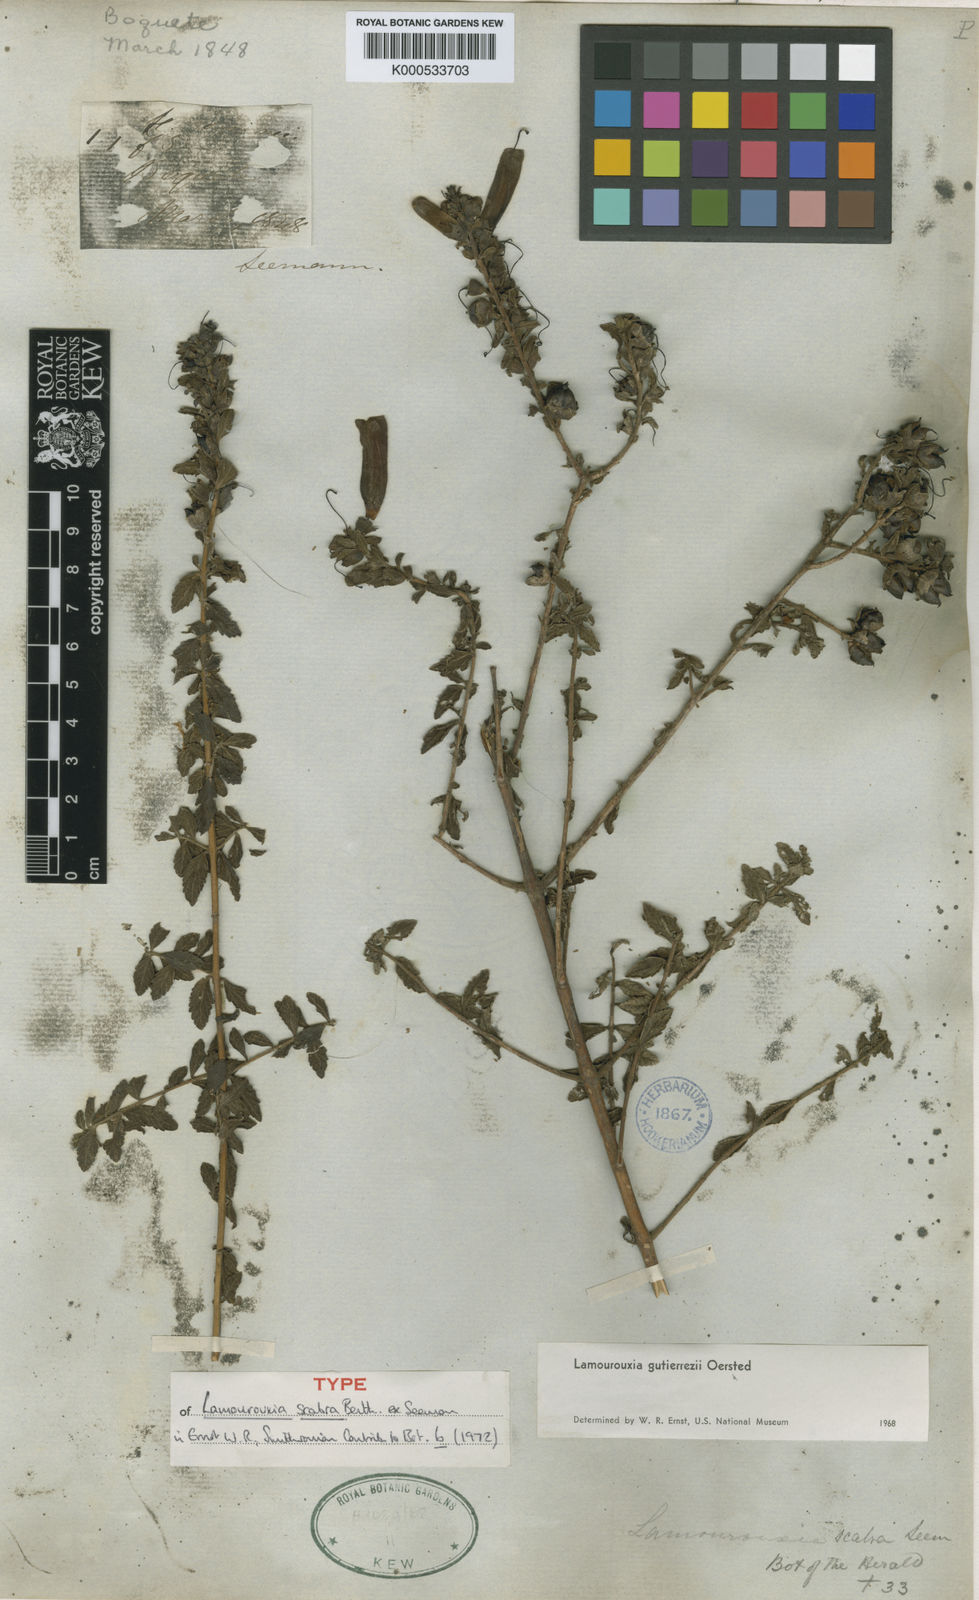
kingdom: Plantae
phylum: Tracheophyta
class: Magnoliopsida
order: Lamiales
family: Orobanchaceae
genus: Lamourouxia
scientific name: Lamourouxia gutierrezii
